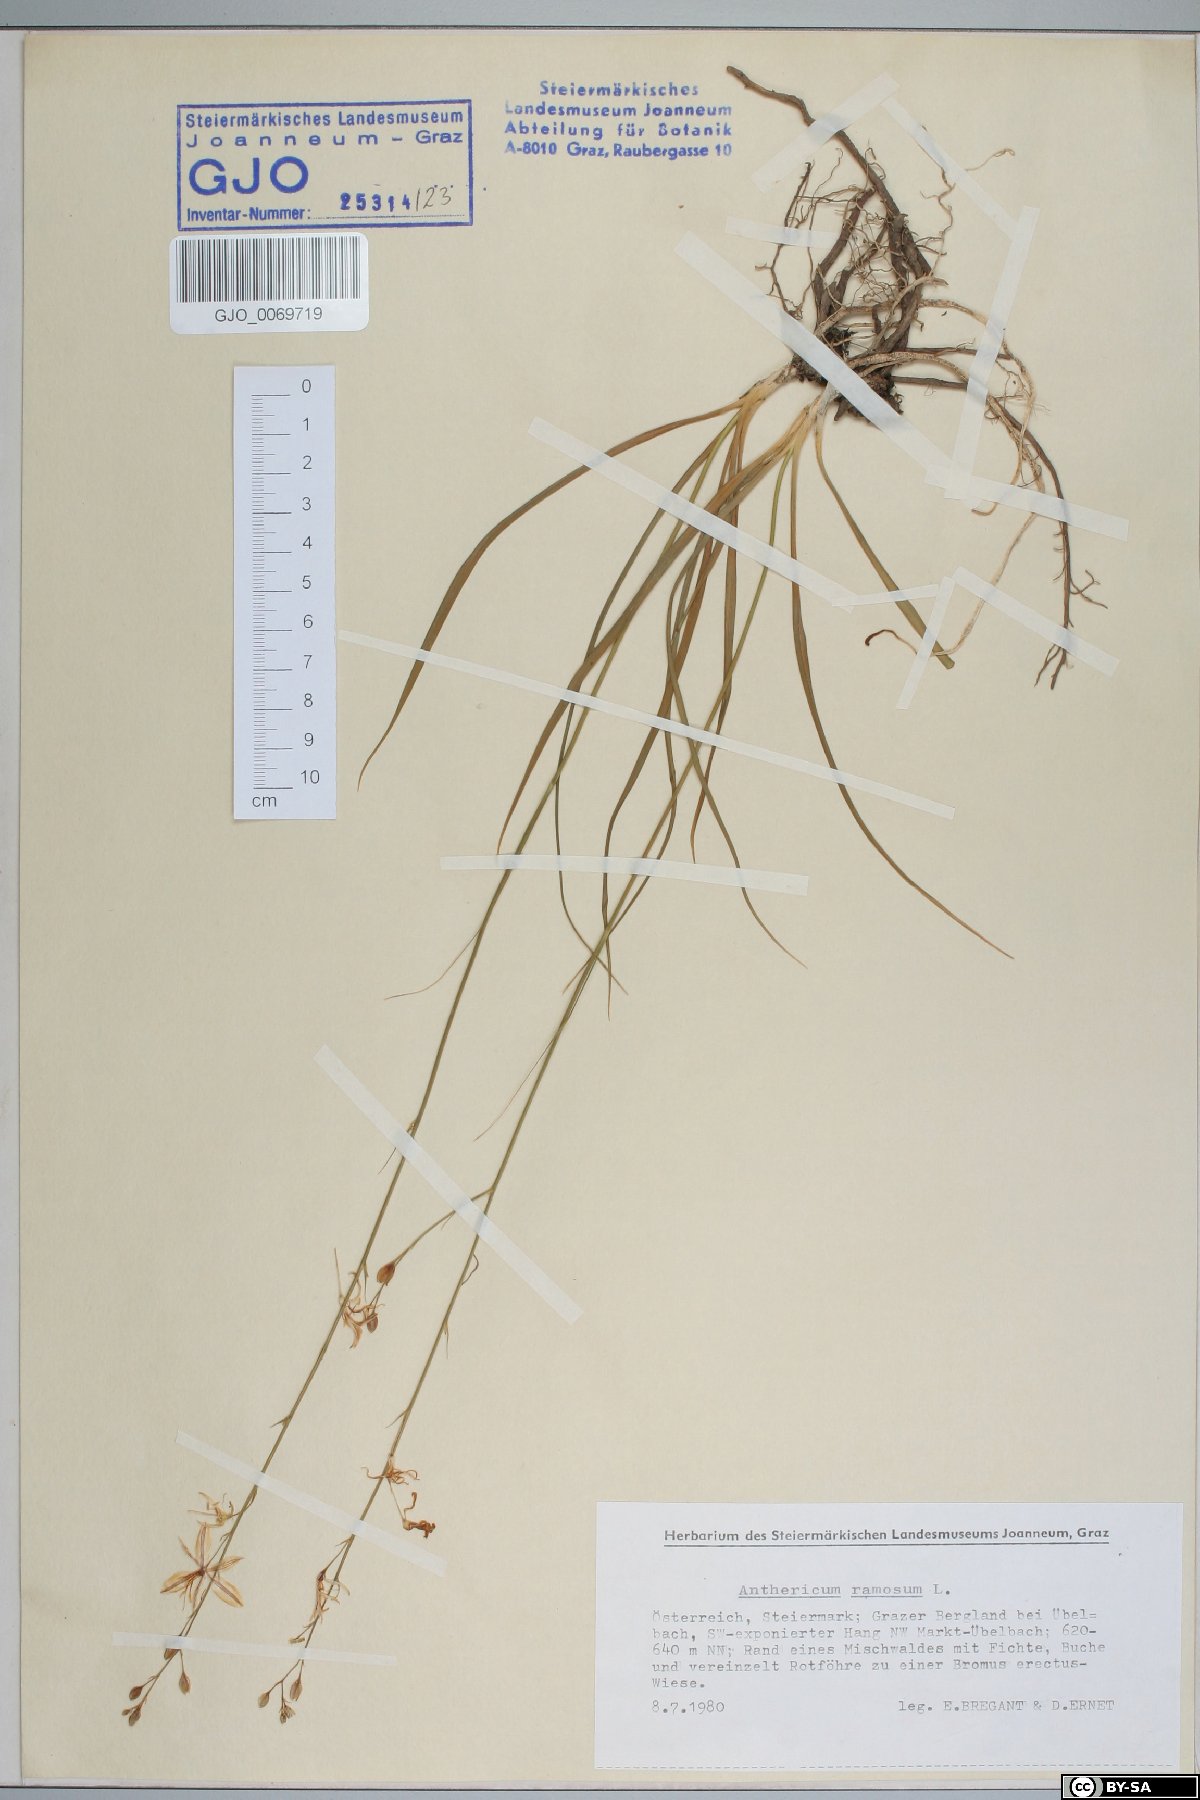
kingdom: Plantae
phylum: Tracheophyta
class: Liliopsida
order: Asparagales
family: Asparagaceae
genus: Anthericum
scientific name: Anthericum ramosum
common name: Branched st. bernard's-lily
